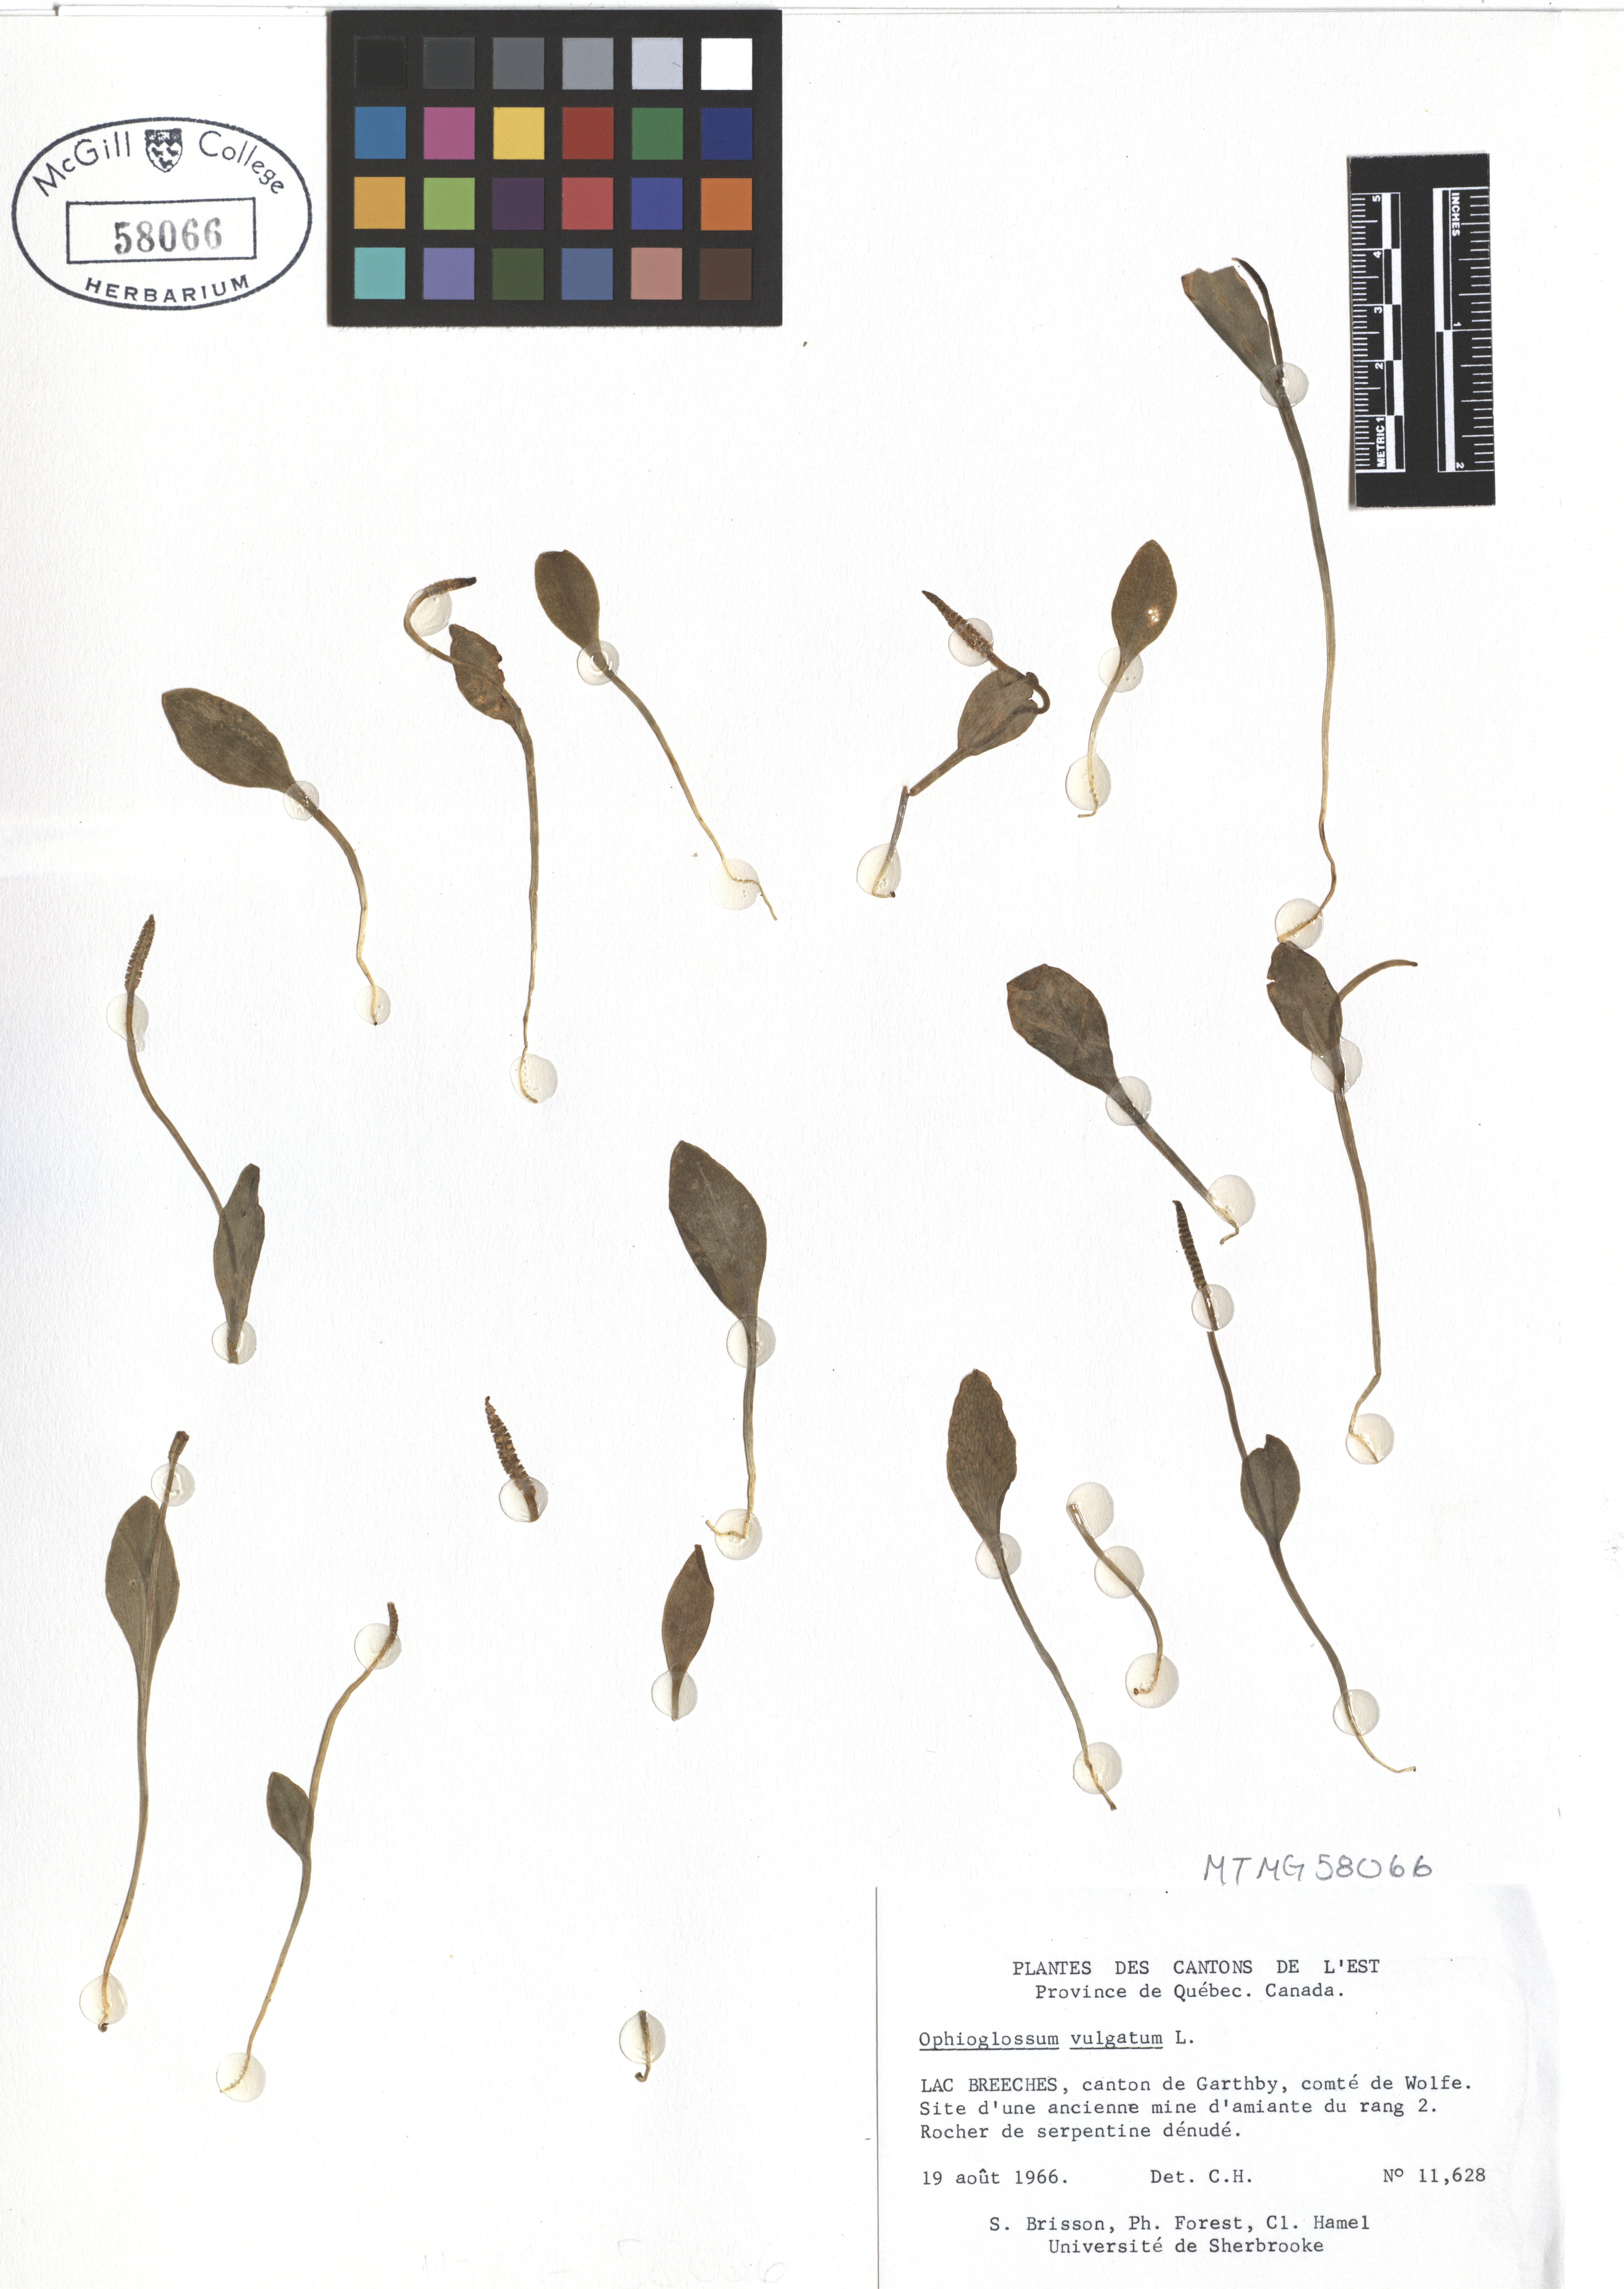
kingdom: Plantae
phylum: Tracheophyta
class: Polypodiopsida
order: Ophioglossales
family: Ophioglossaceae
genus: Ophioglossum
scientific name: Ophioglossum vulgatum
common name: Adder's-tongue
